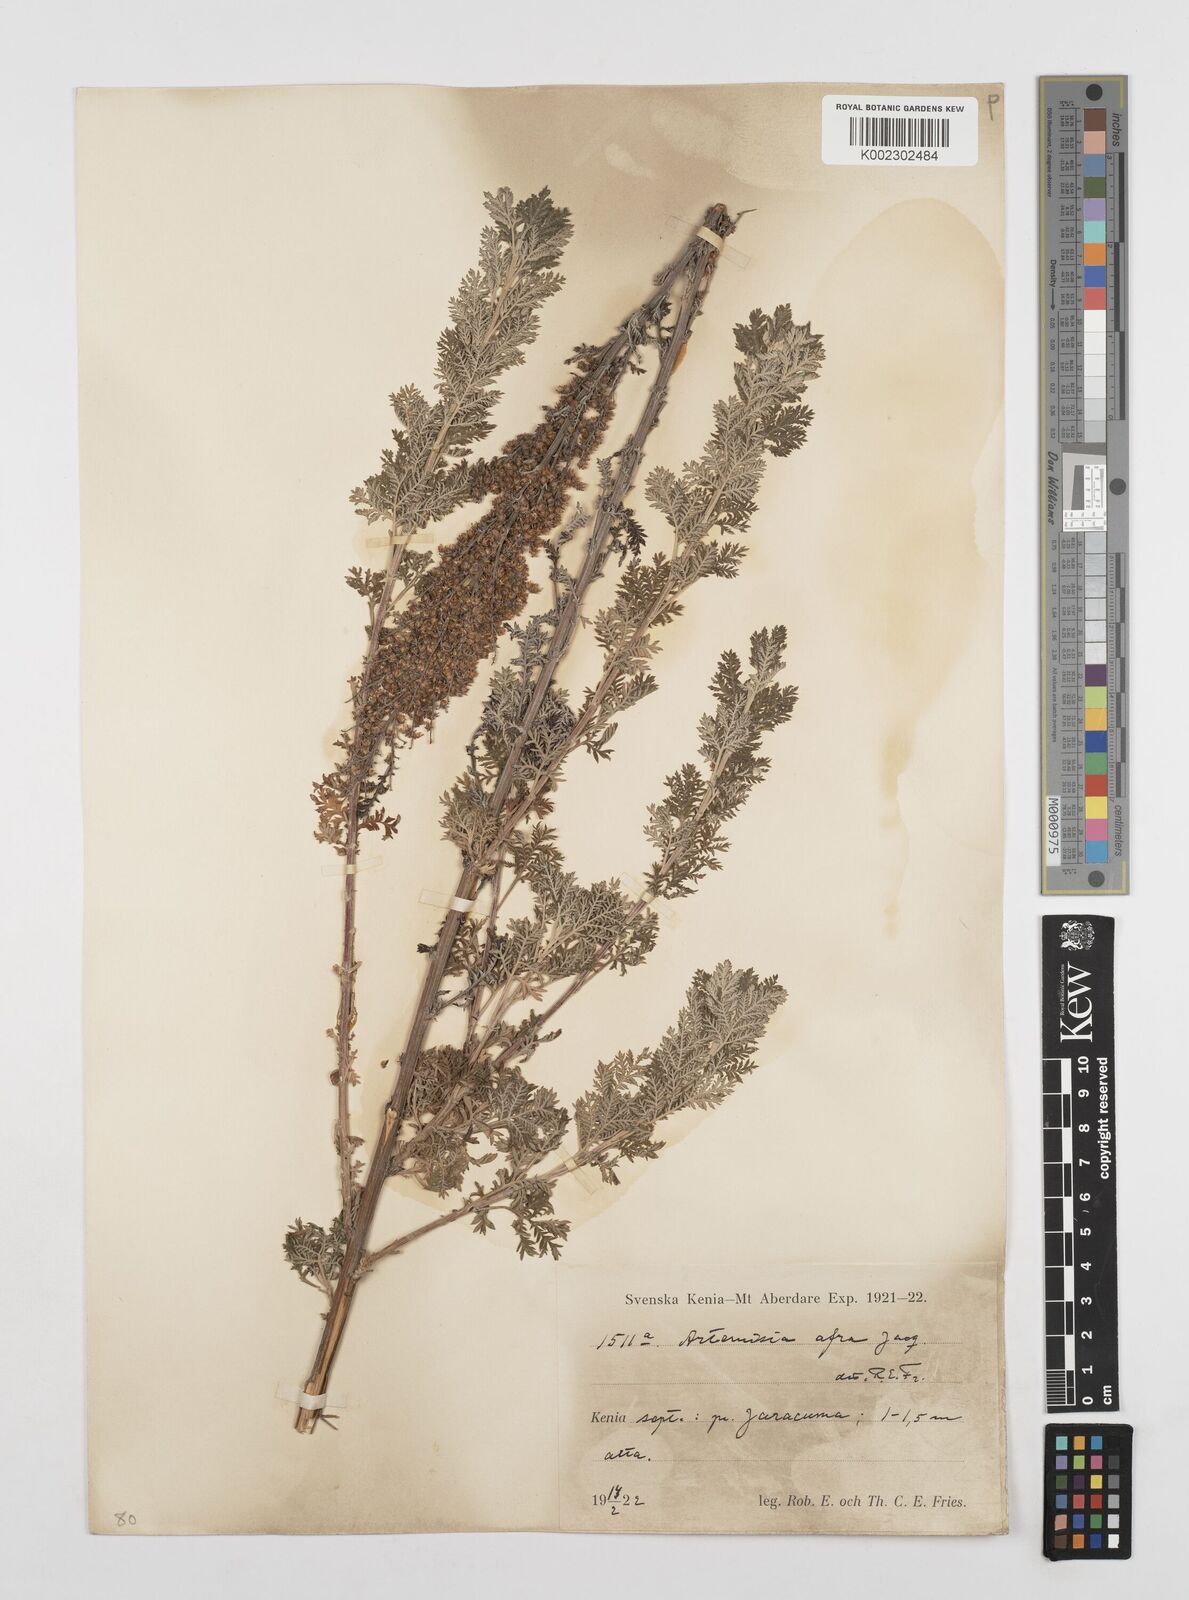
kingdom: Plantae
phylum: Tracheophyta
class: Magnoliopsida
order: Asterales
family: Asteraceae
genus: Artemisia
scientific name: Artemisia afra
